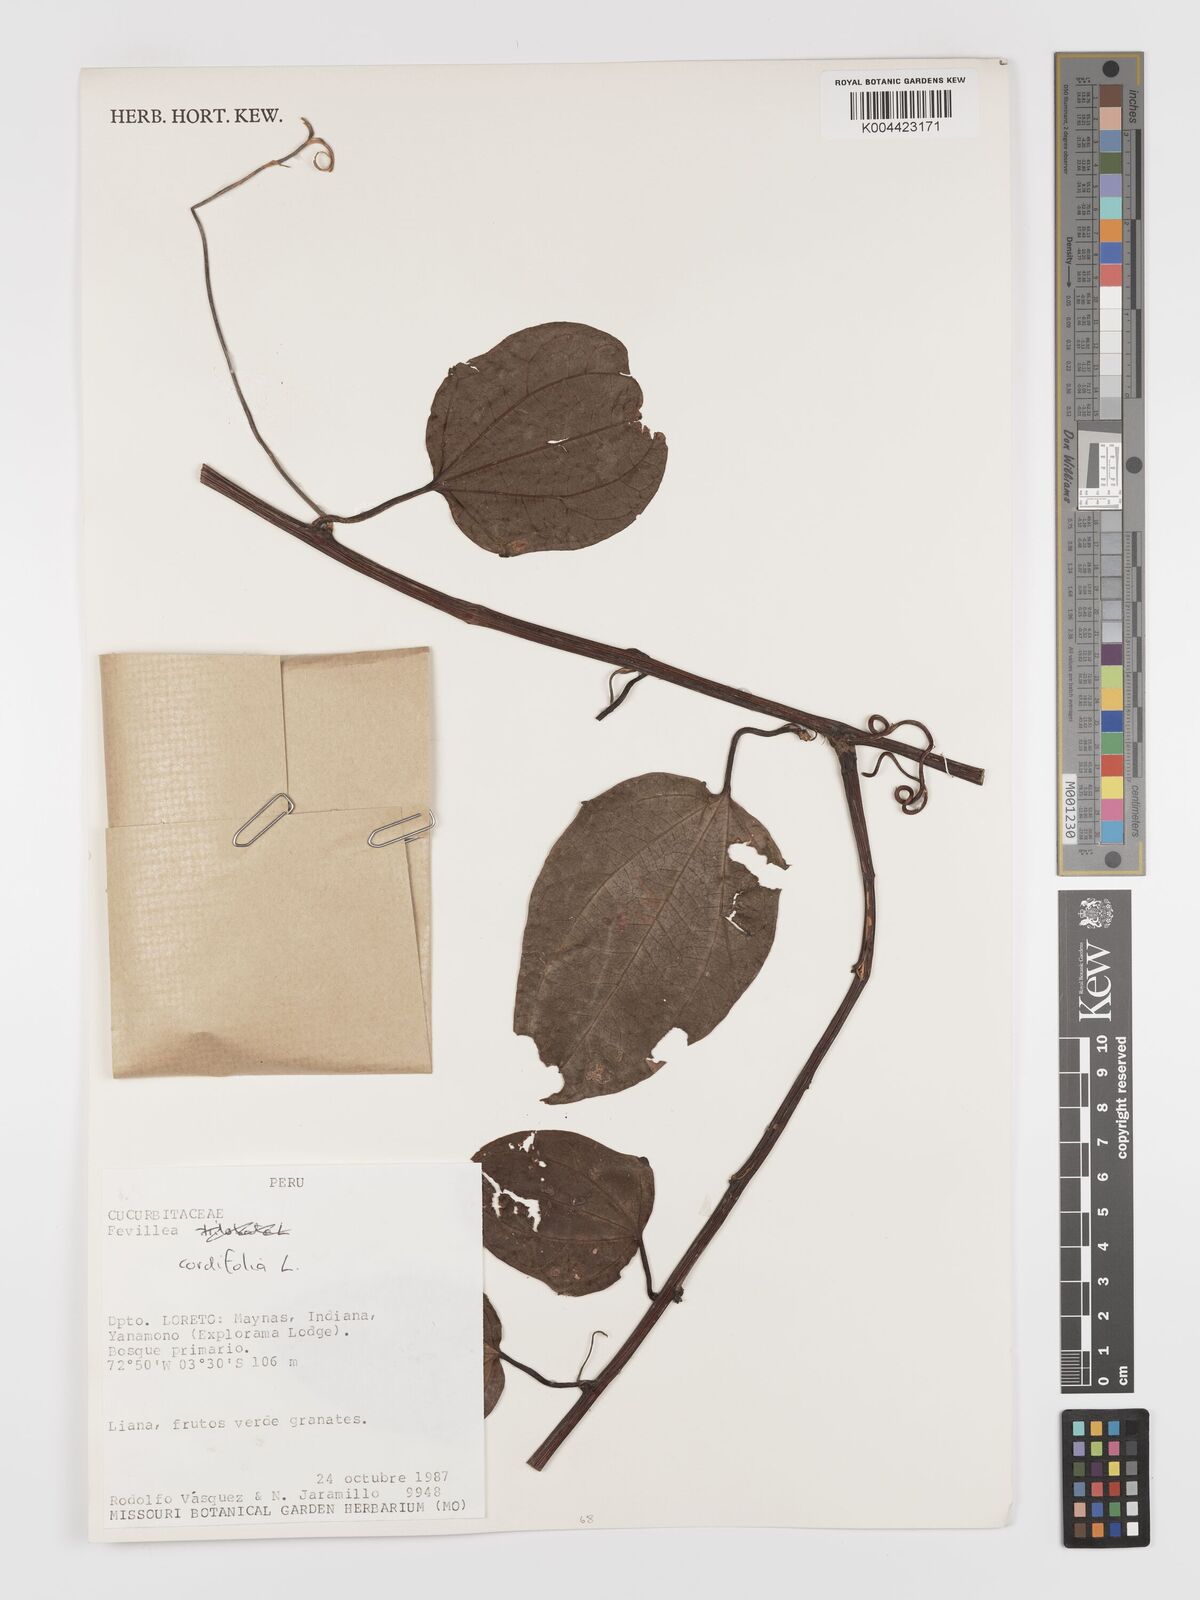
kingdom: Plantae
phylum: Tracheophyta
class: Magnoliopsida
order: Cucurbitales
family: Cucurbitaceae
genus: Fevillea
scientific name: Fevillea
